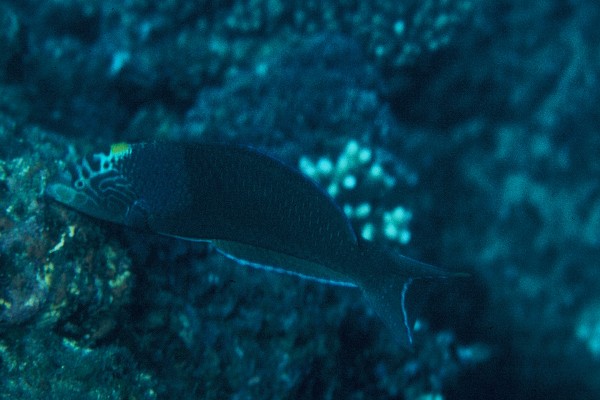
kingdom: Animalia
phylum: Chordata
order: Perciformes
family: Labridae
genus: Anampses
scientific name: Anampses meleagrides
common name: Yellowtail wrasse
